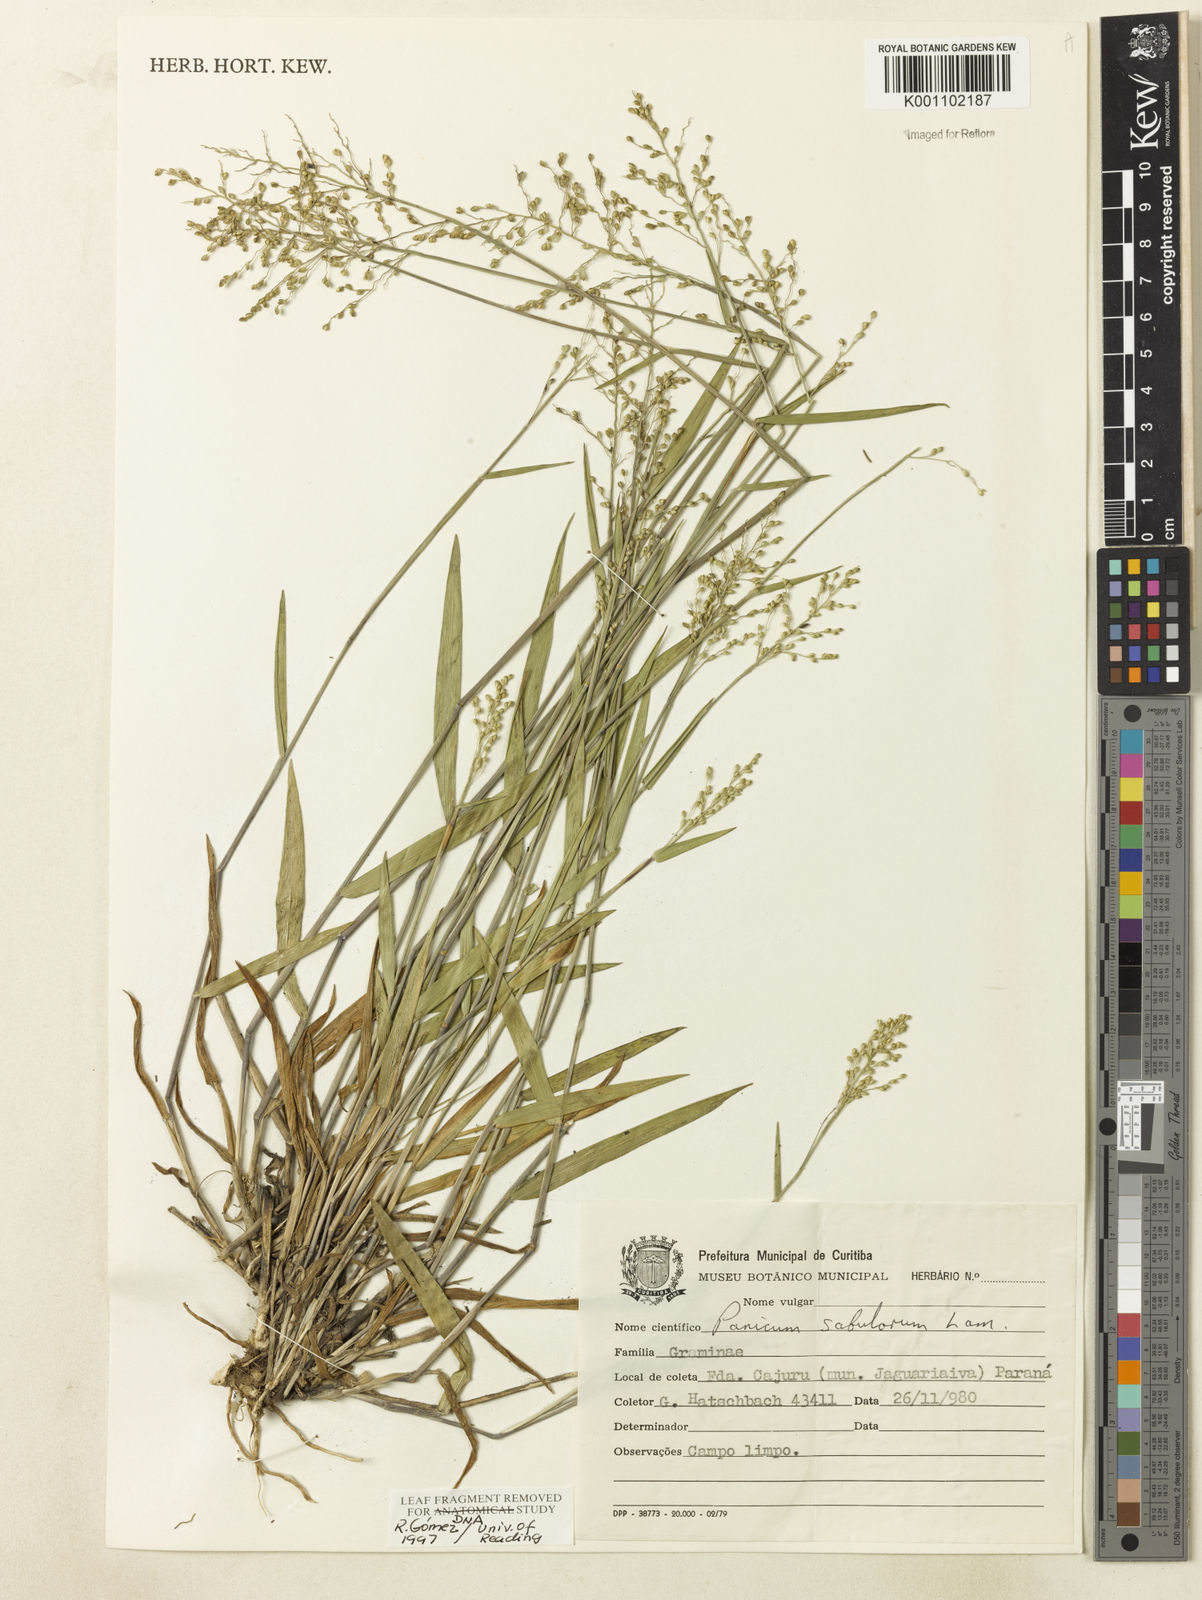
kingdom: Plantae
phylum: Tracheophyta
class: Liliopsida
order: Poales
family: Poaceae
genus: Dichanthelium
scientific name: Dichanthelium sabulorum
